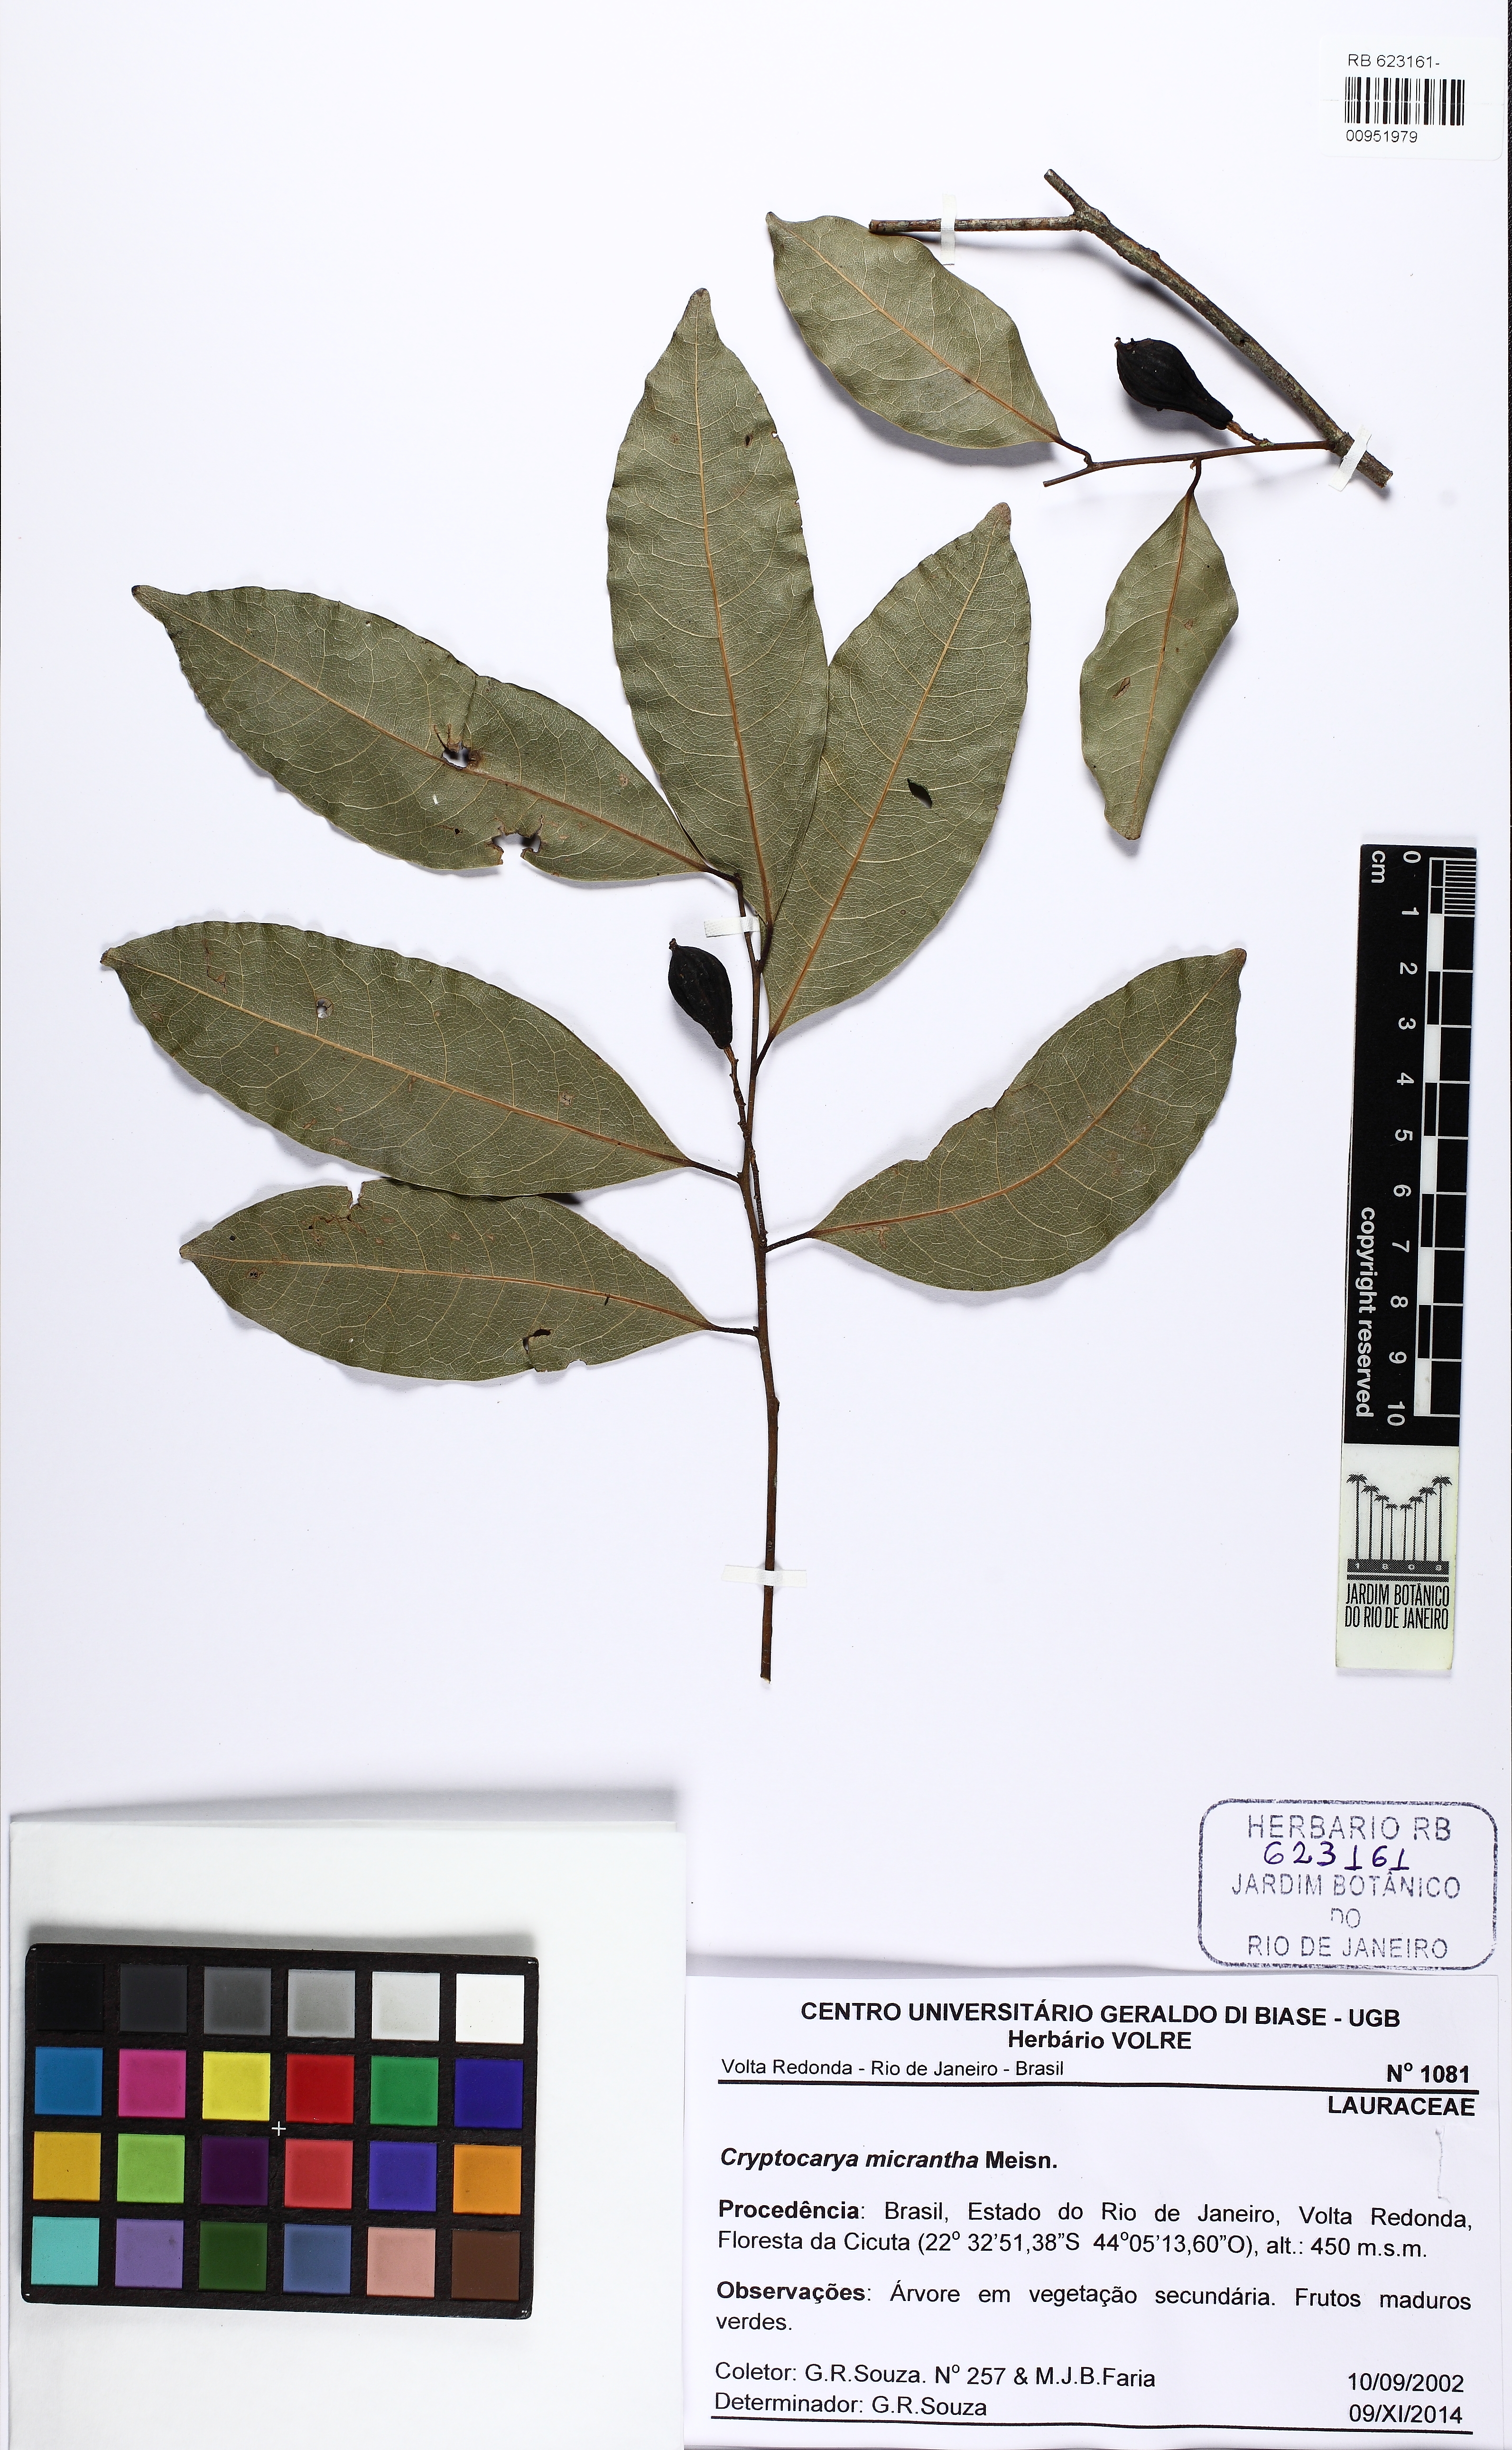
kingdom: Plantae
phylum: Tracheophyta
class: Magnoliopsida
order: Laurales
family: Lauraceae
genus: Cryptocarya
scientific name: Cryptocarya micrantha
